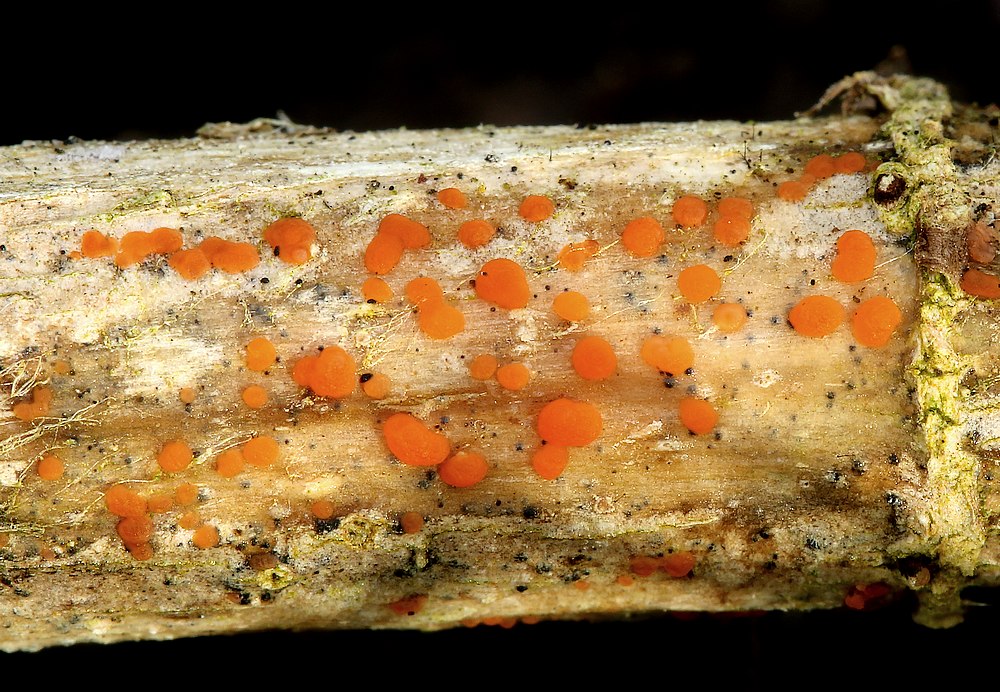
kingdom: Fungi
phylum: Ascomycota
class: Leotiomycetes
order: Helotiales
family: Calloriaceae
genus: Calloria
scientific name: Calloria urticae
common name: nælde-orangeskive
